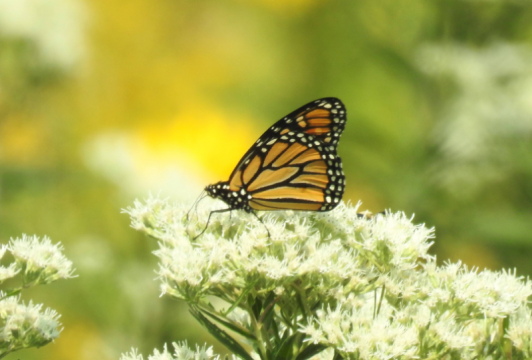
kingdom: Animalia
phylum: Arthropoda
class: Insecta
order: Lepidoptera
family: Nymphalidae
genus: Danaus
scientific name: Danaus plexippus
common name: Monarch
